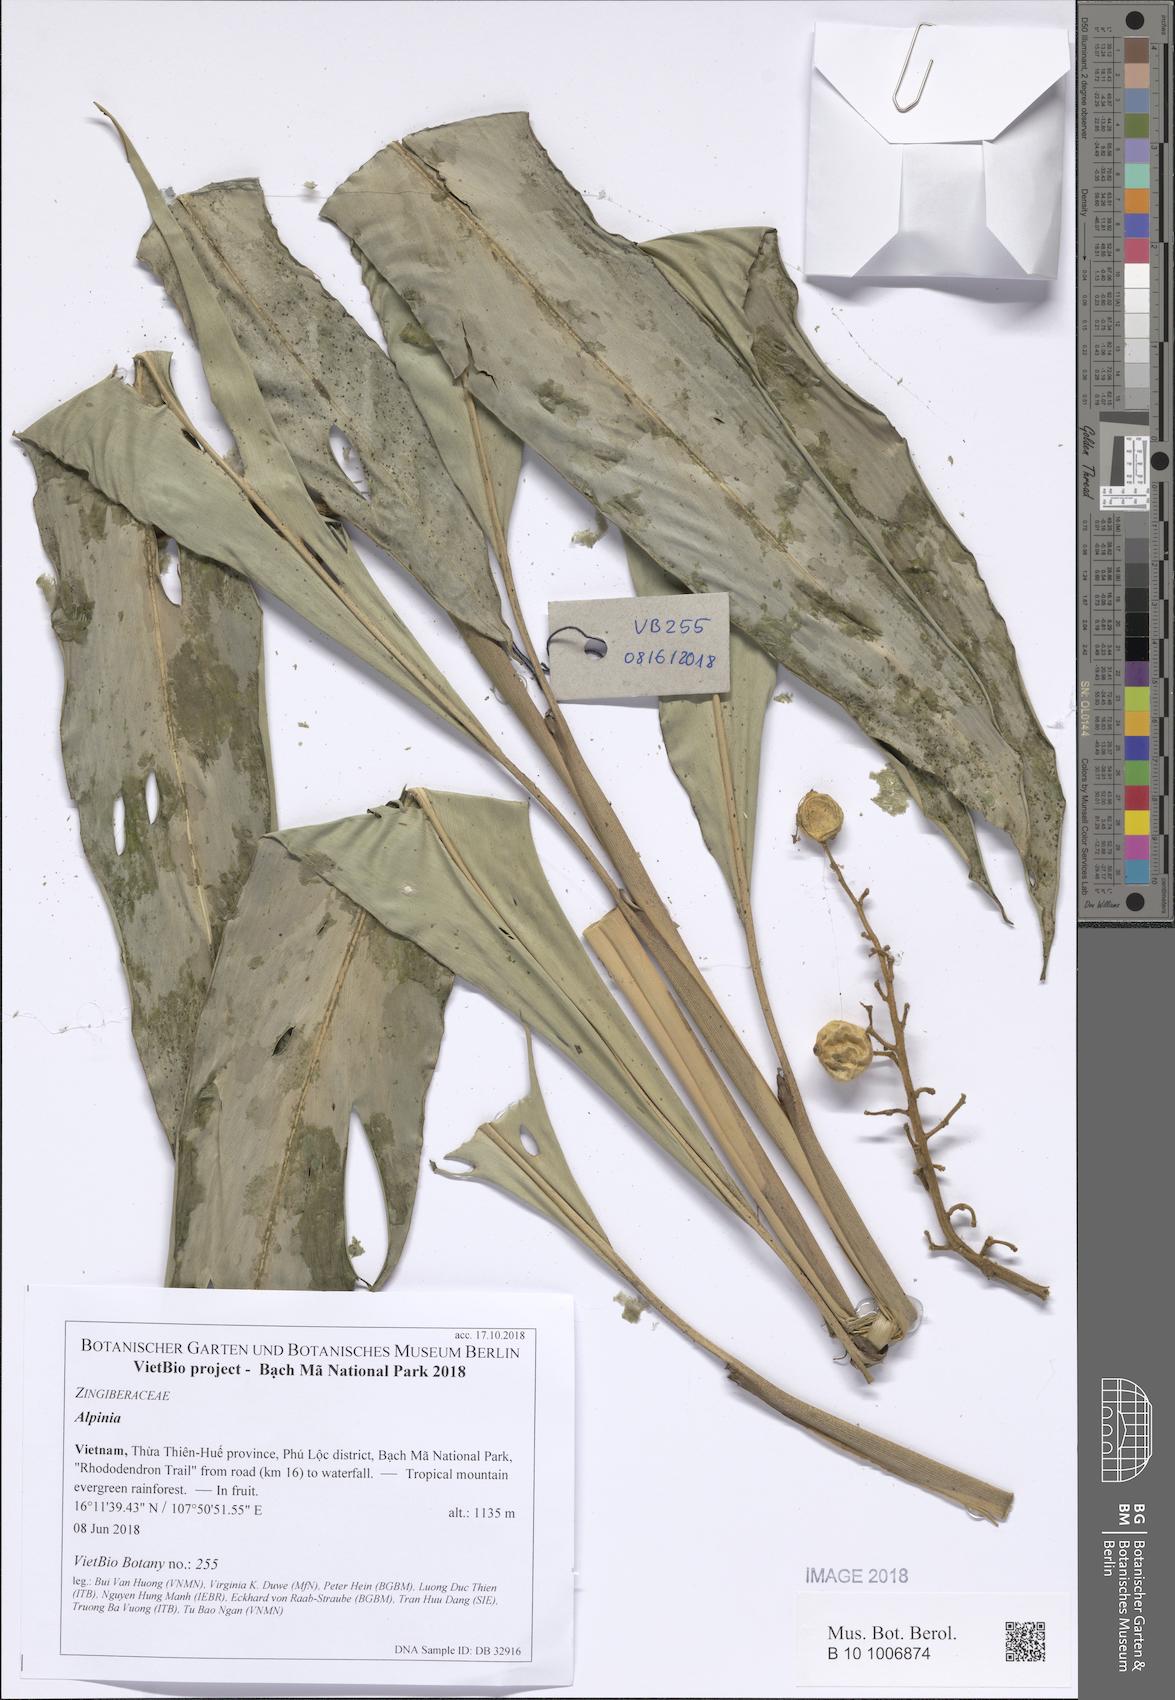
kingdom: Plantae
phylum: Tracheophyta
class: Liliopsida
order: Zingiberales
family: Zingiberaceae
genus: Alpinia
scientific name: Alpinia
